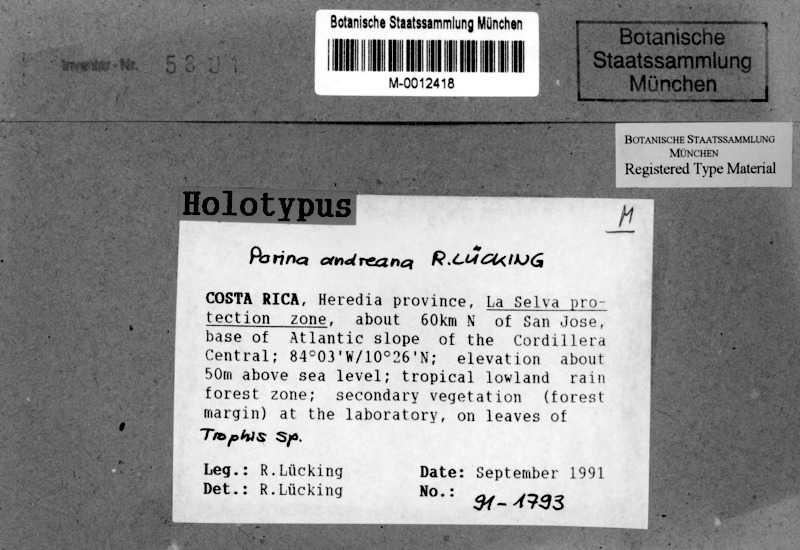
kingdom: Fungi
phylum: Ascomycota
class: Lecanoromycetes
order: Ostropales
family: Porinaceae
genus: Porina
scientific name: Porina andreana
